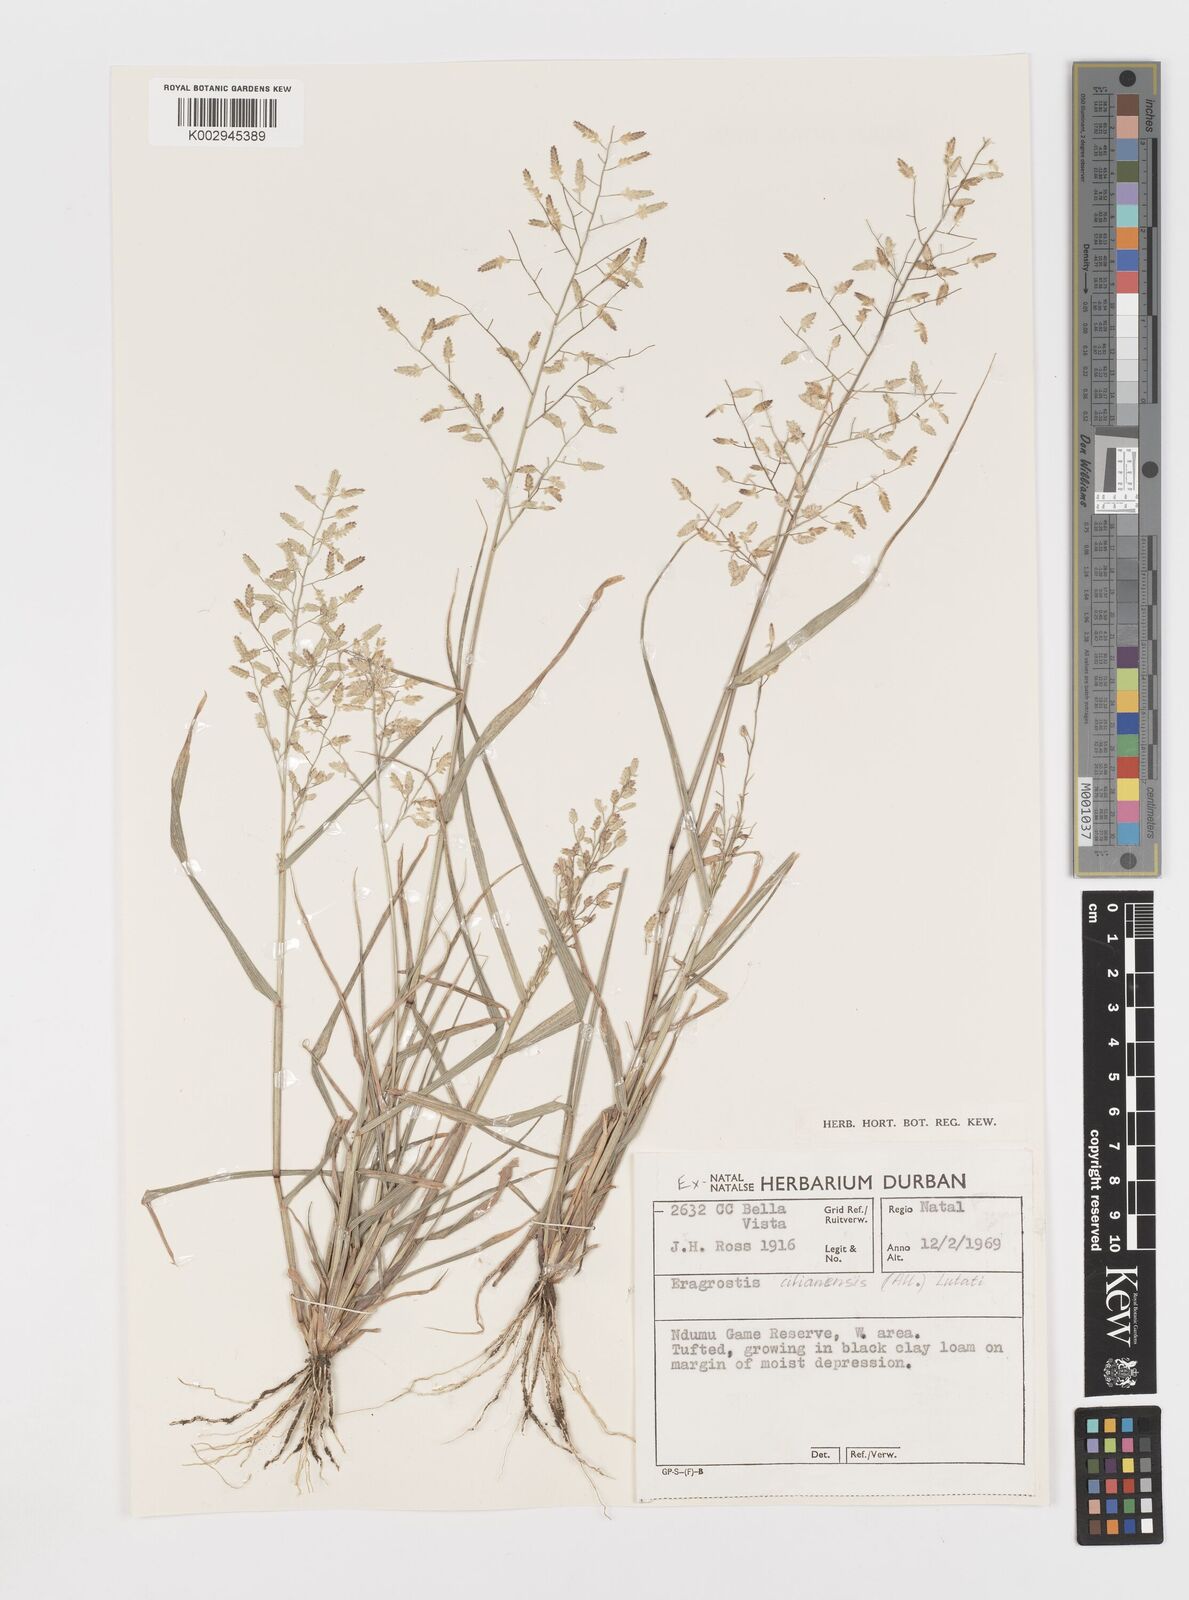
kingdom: Plantae
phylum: Tracheophyta
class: Liliopsida
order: Poales
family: Poaceae
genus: Eragrostis
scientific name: Eragrostis cilianensis
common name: Stinkgrass
